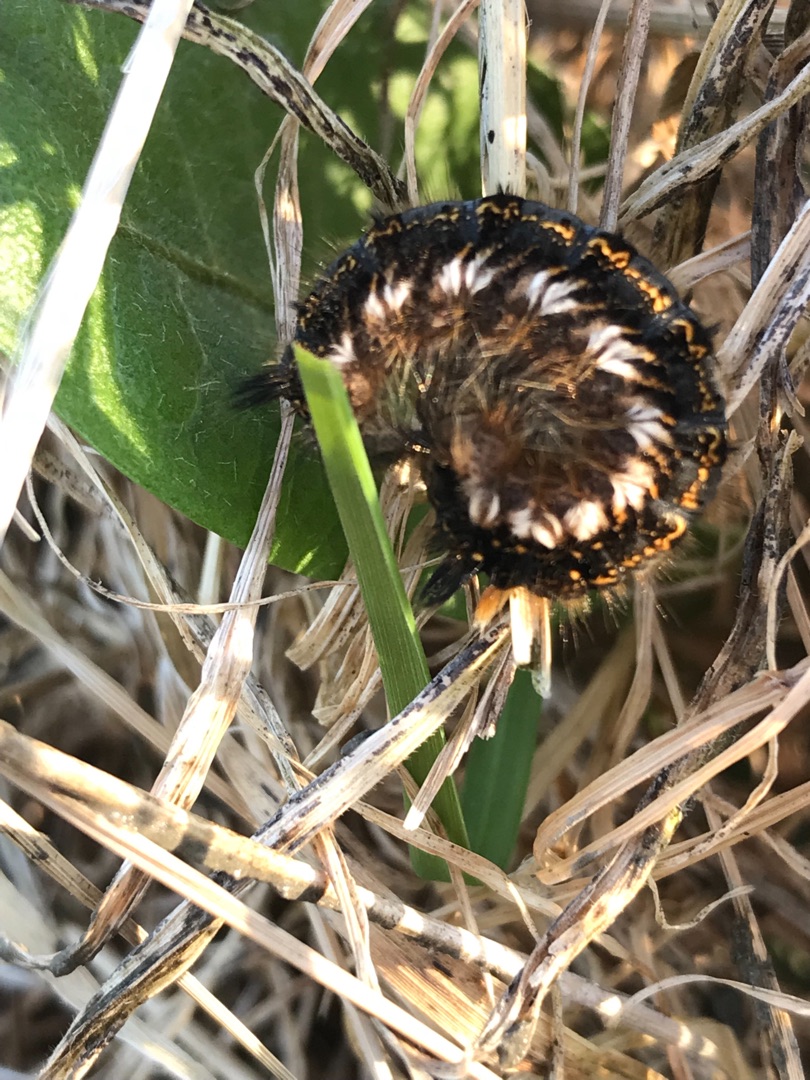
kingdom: Animalia
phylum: Arthropoda
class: Insecta
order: Lepidoptera
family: Lasiocampidae
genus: Euthrix
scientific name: Euthrix potatoria
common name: Græsspinder
